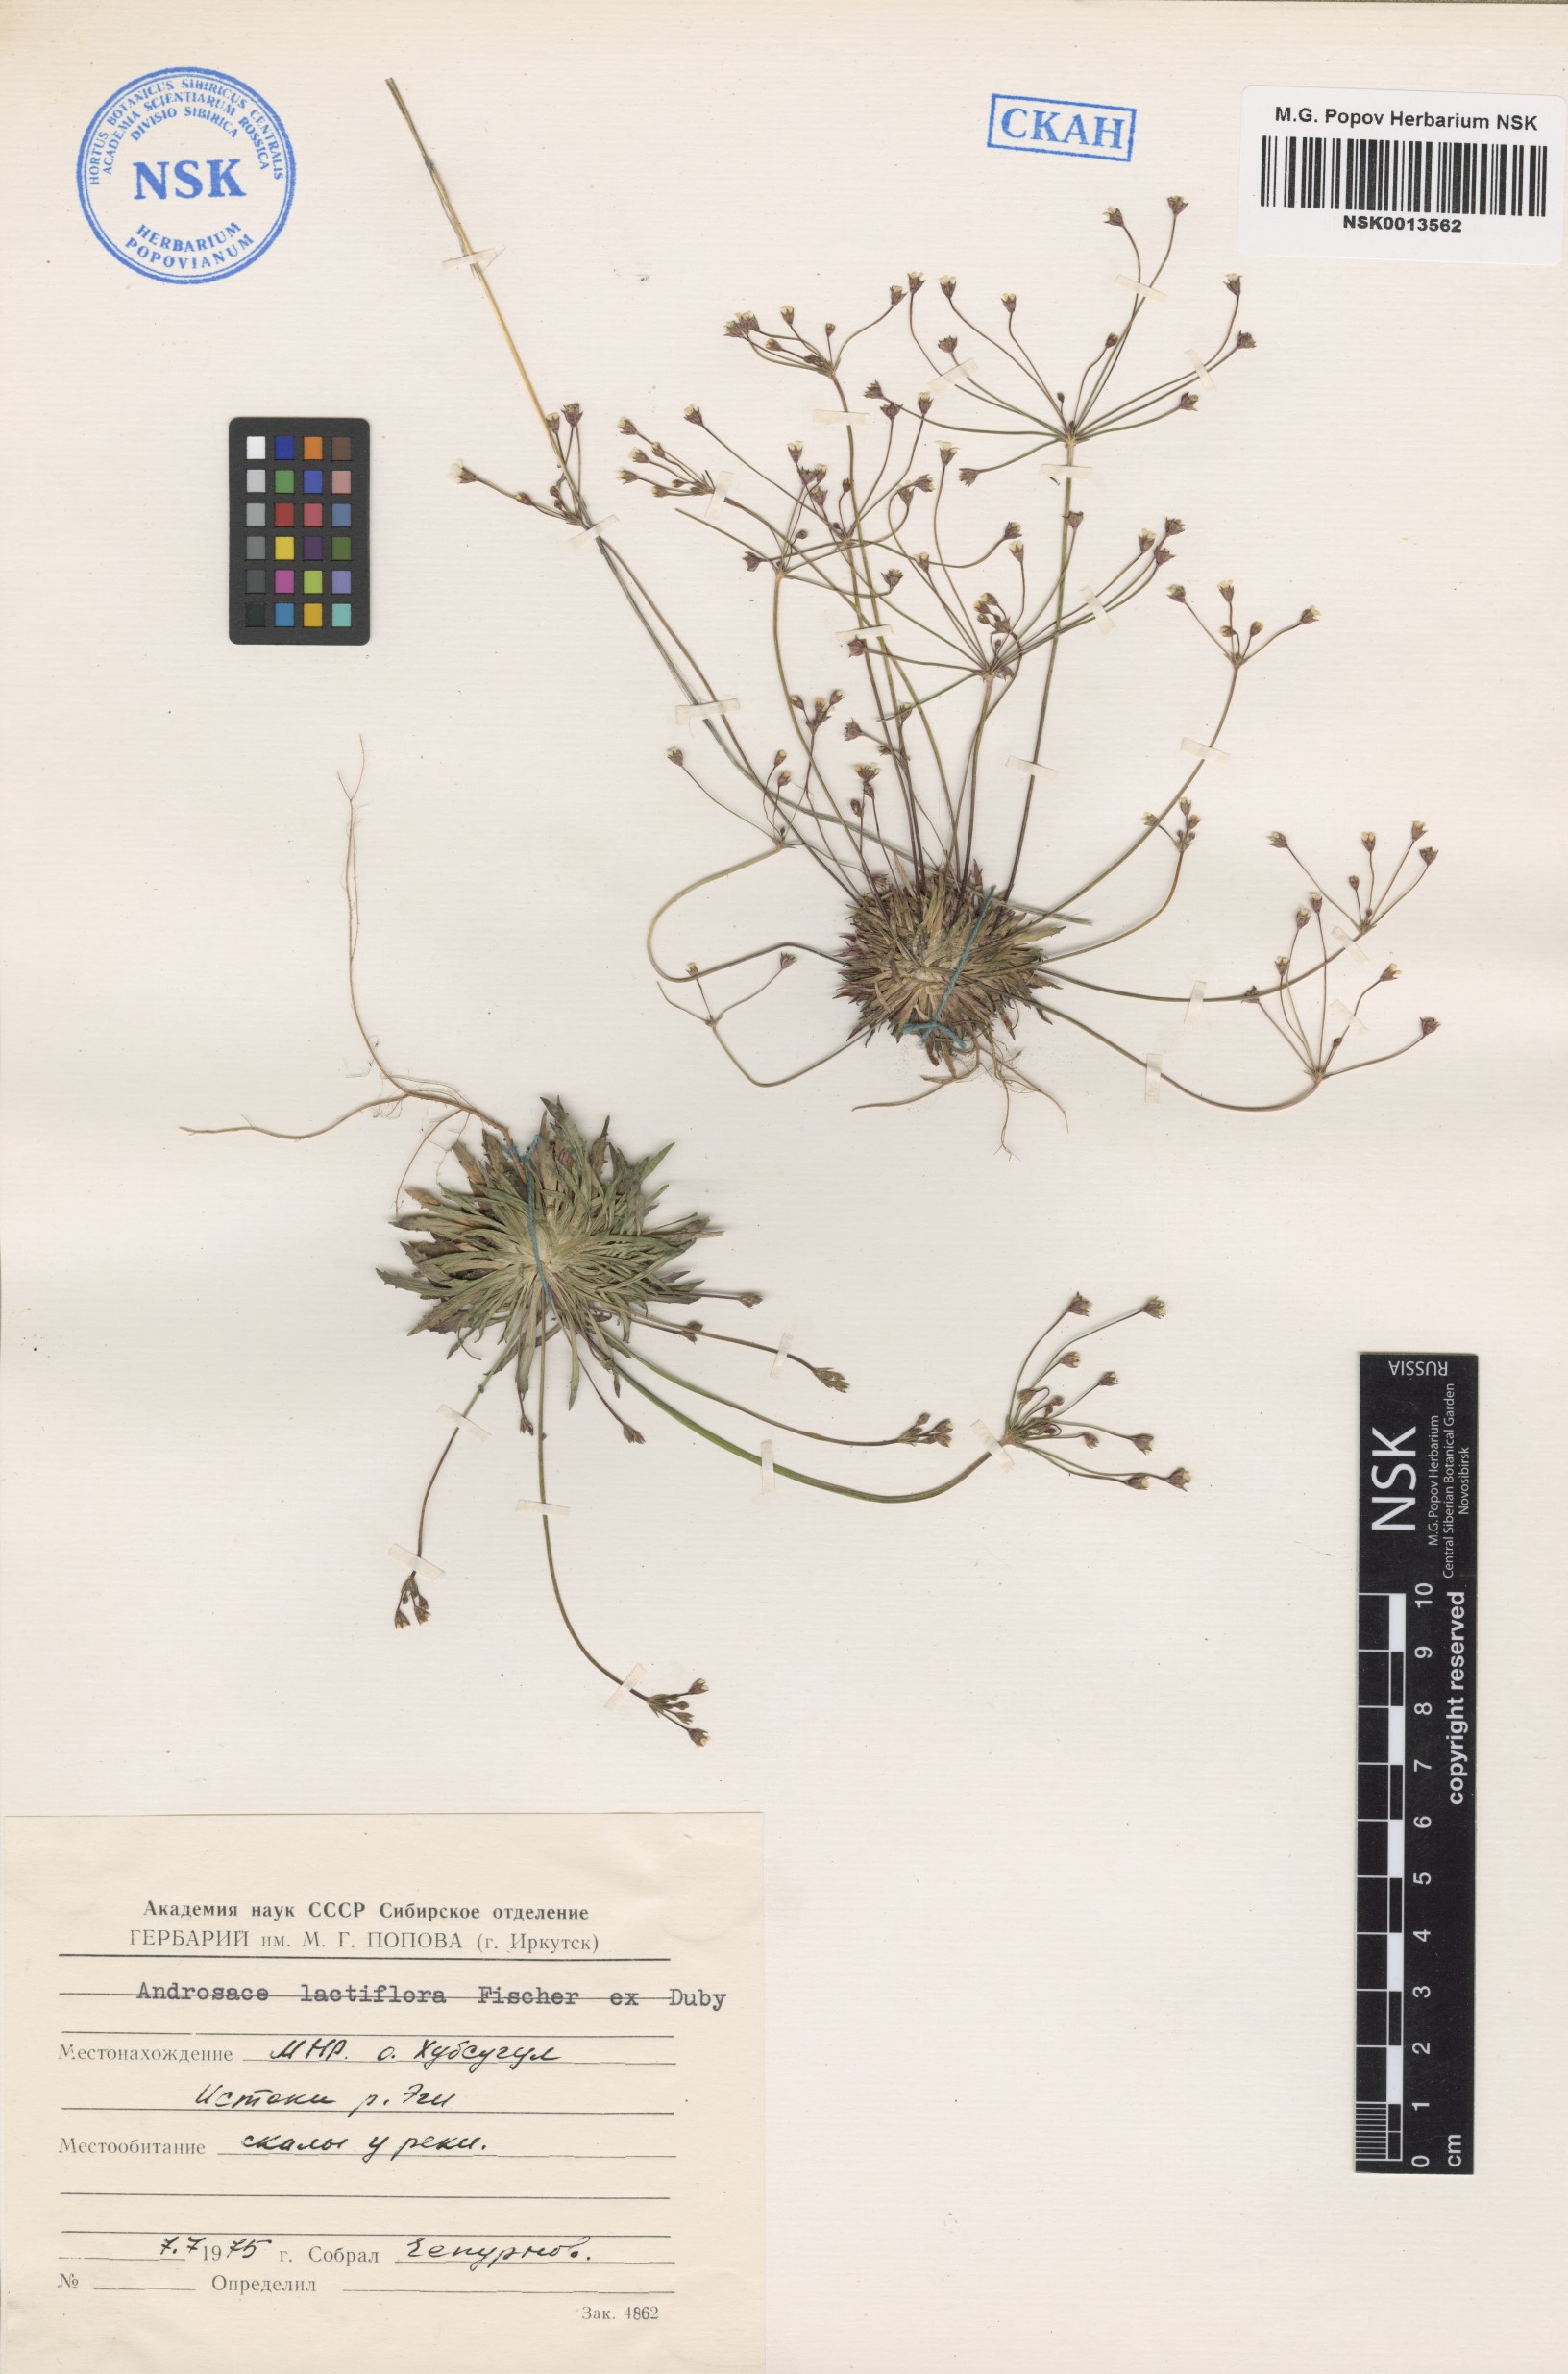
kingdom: Plantae
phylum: Tracheophyta
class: Magnoliopsida
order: Ericales
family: Primulaceae
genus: Androsace
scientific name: Androsace lactiflora
